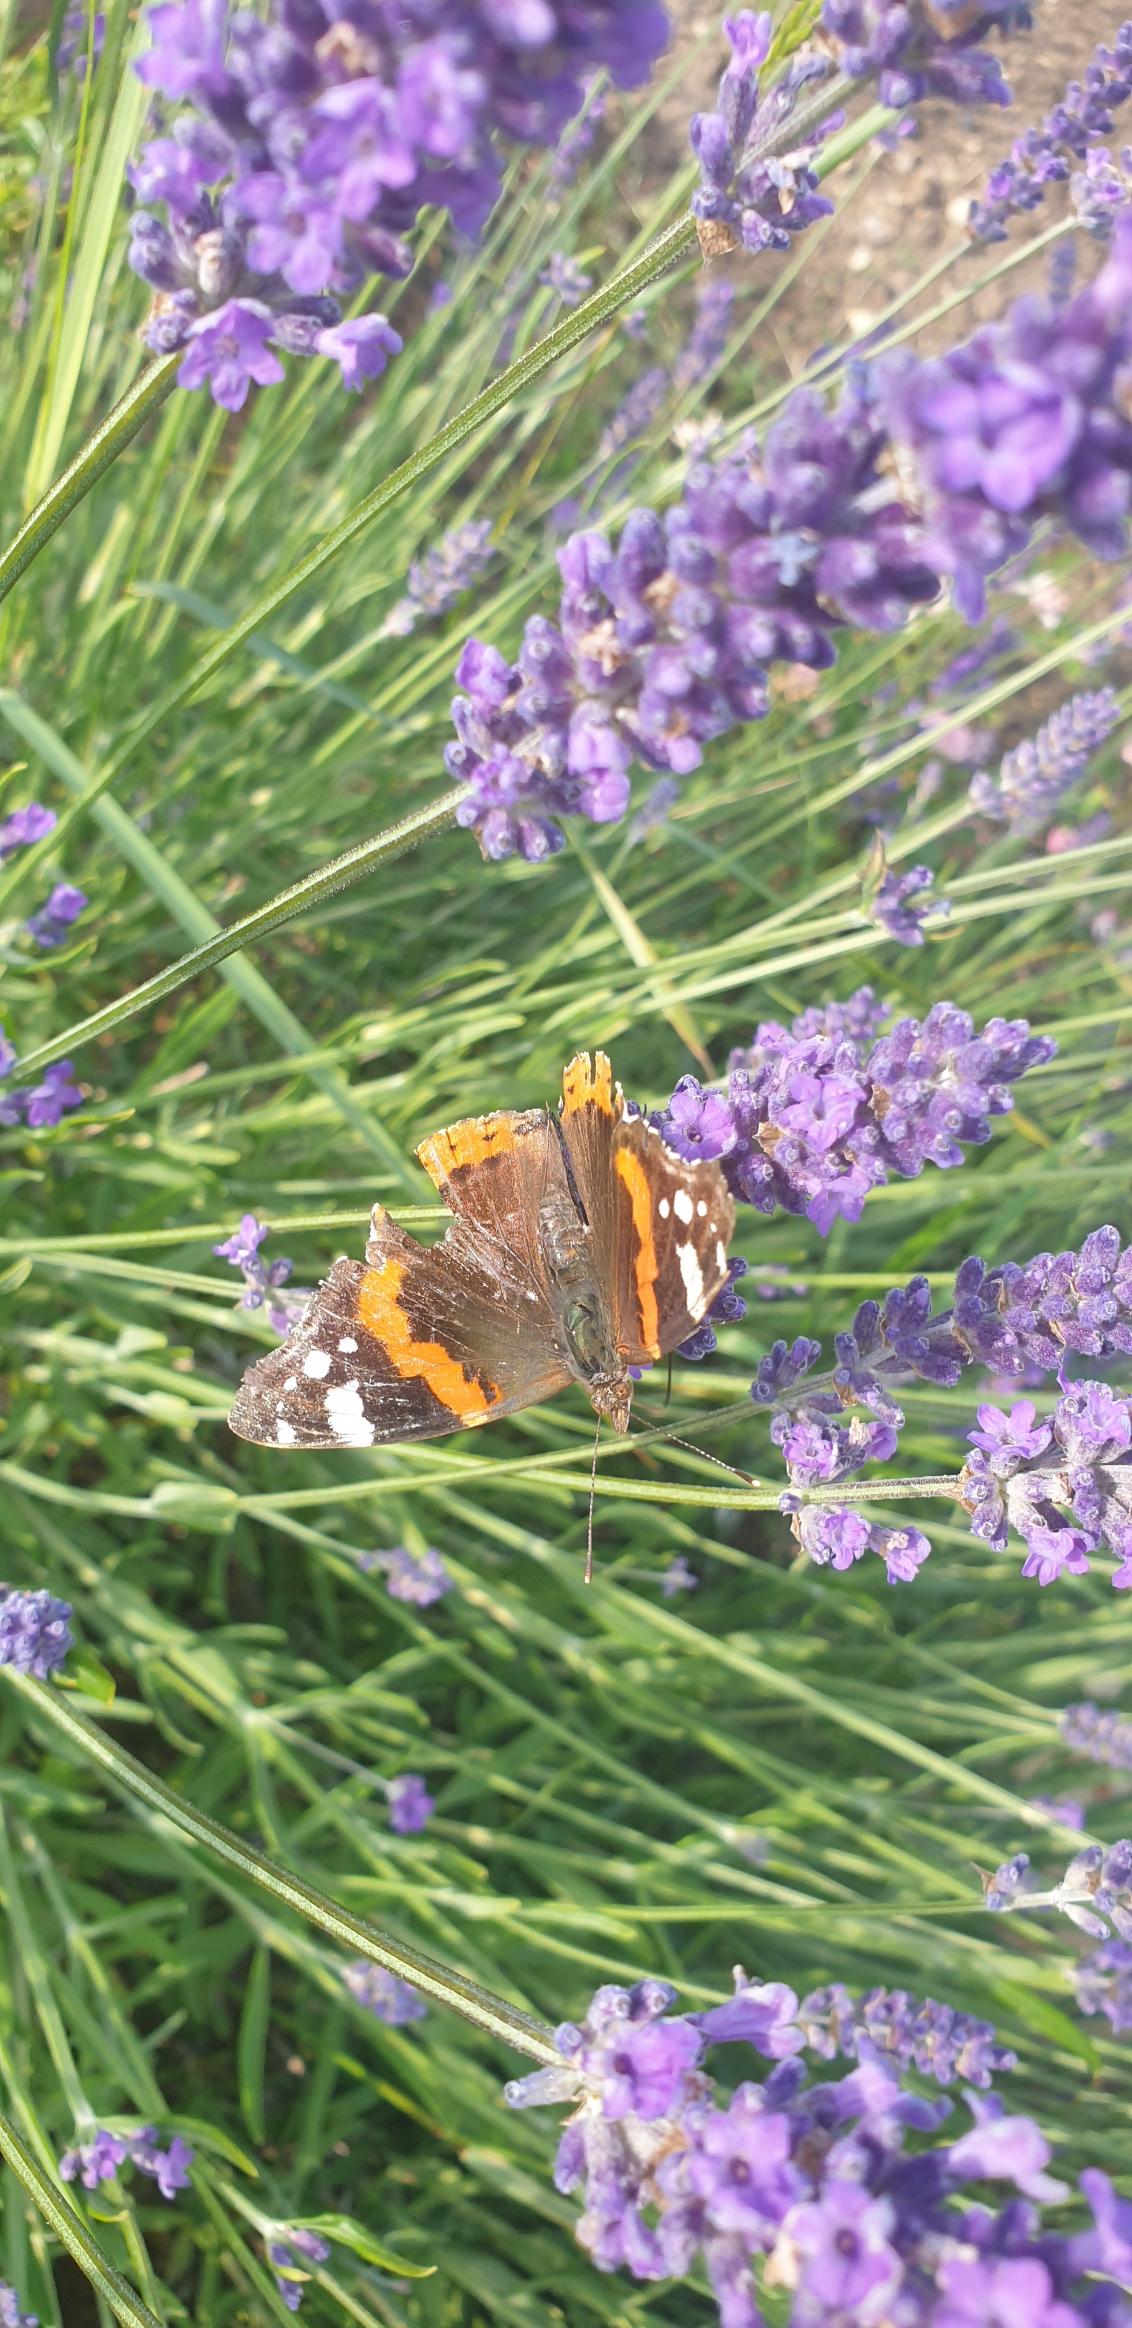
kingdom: Animalia
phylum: Arthropoda
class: Insecta
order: Lepidoptera
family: Nymphalidae
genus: Vanessa
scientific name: Vanessa atalanta
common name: Admiral
